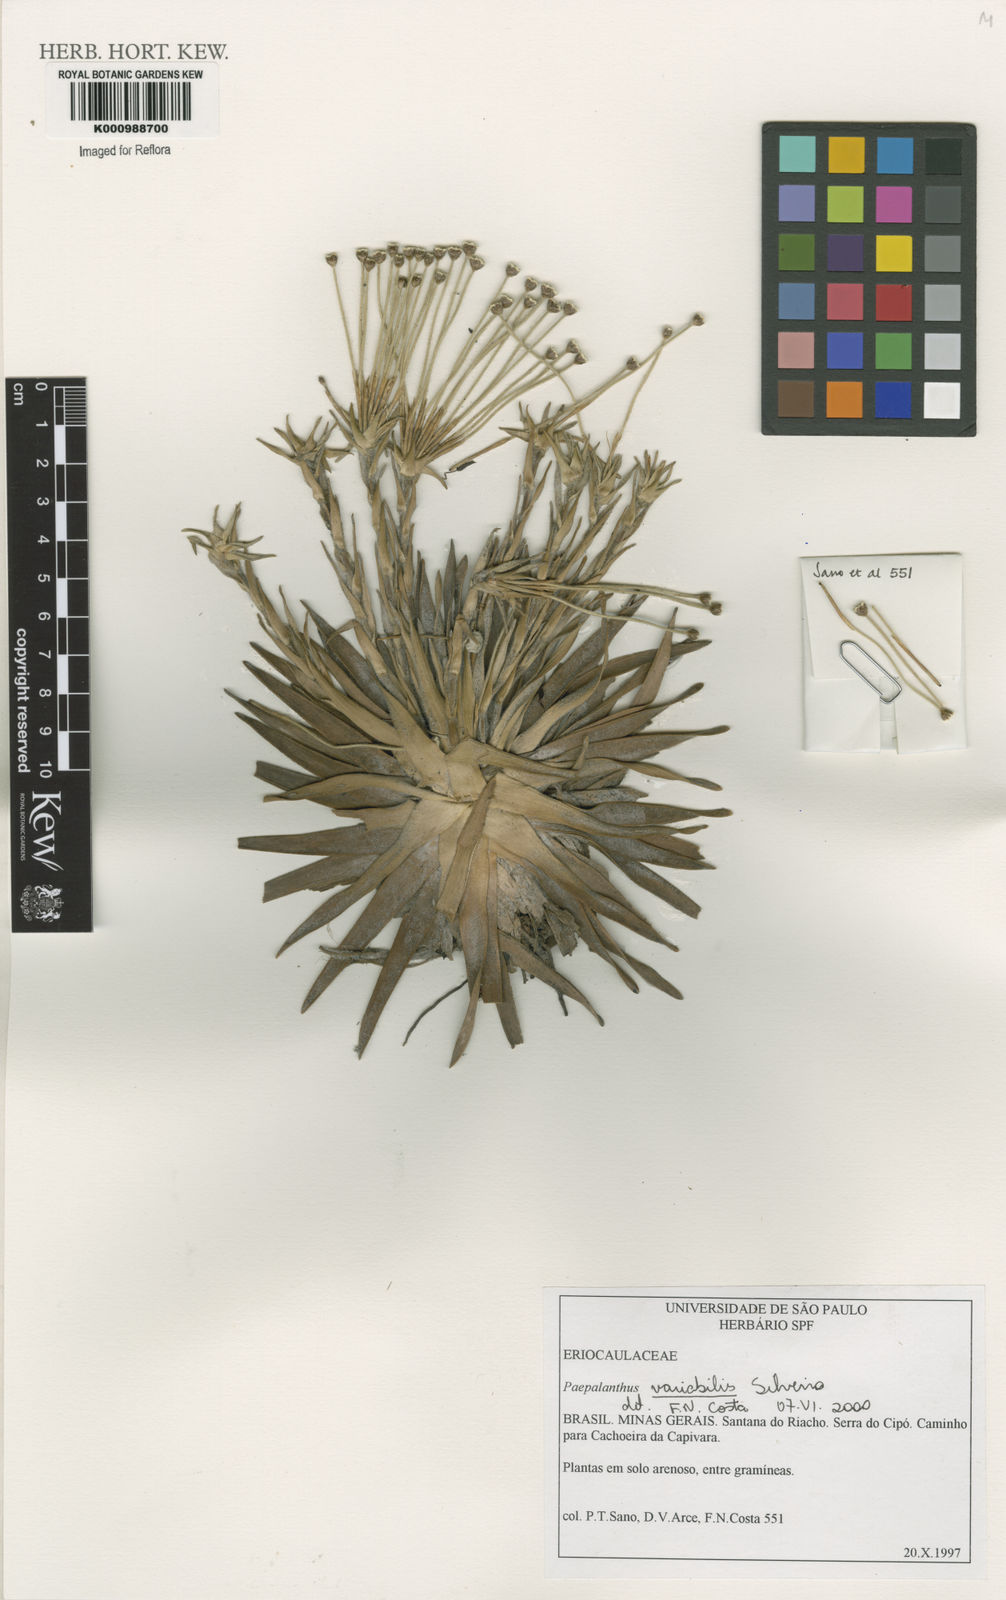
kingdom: Plantae
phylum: Tracheophyta
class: Liliopsida
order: Poales
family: Eriocaulaceae
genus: Paepalanthus
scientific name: Paepalanthus bahiensis
